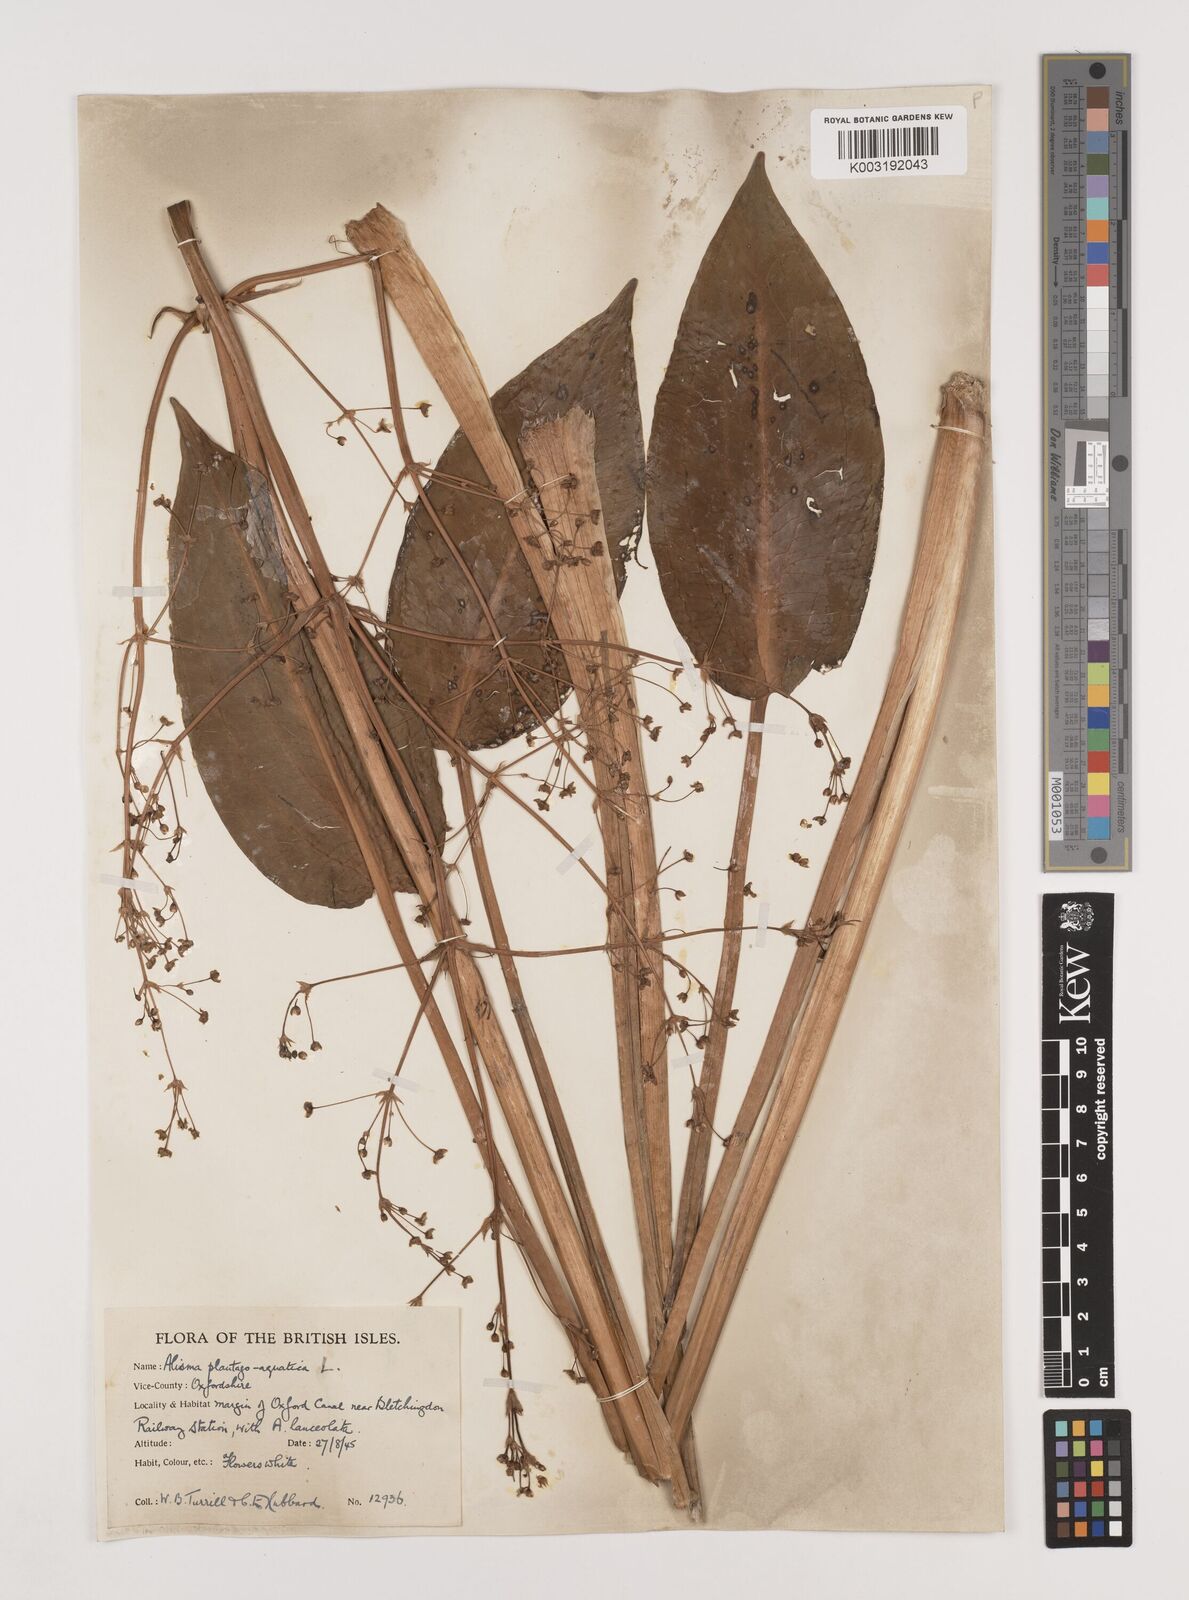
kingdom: Plantae
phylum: Tracheophyta
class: Liliopsida
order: Alismatales
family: Alismataceae
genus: Alisma
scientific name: Alisma plantago-aquatica
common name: Water-plantain
